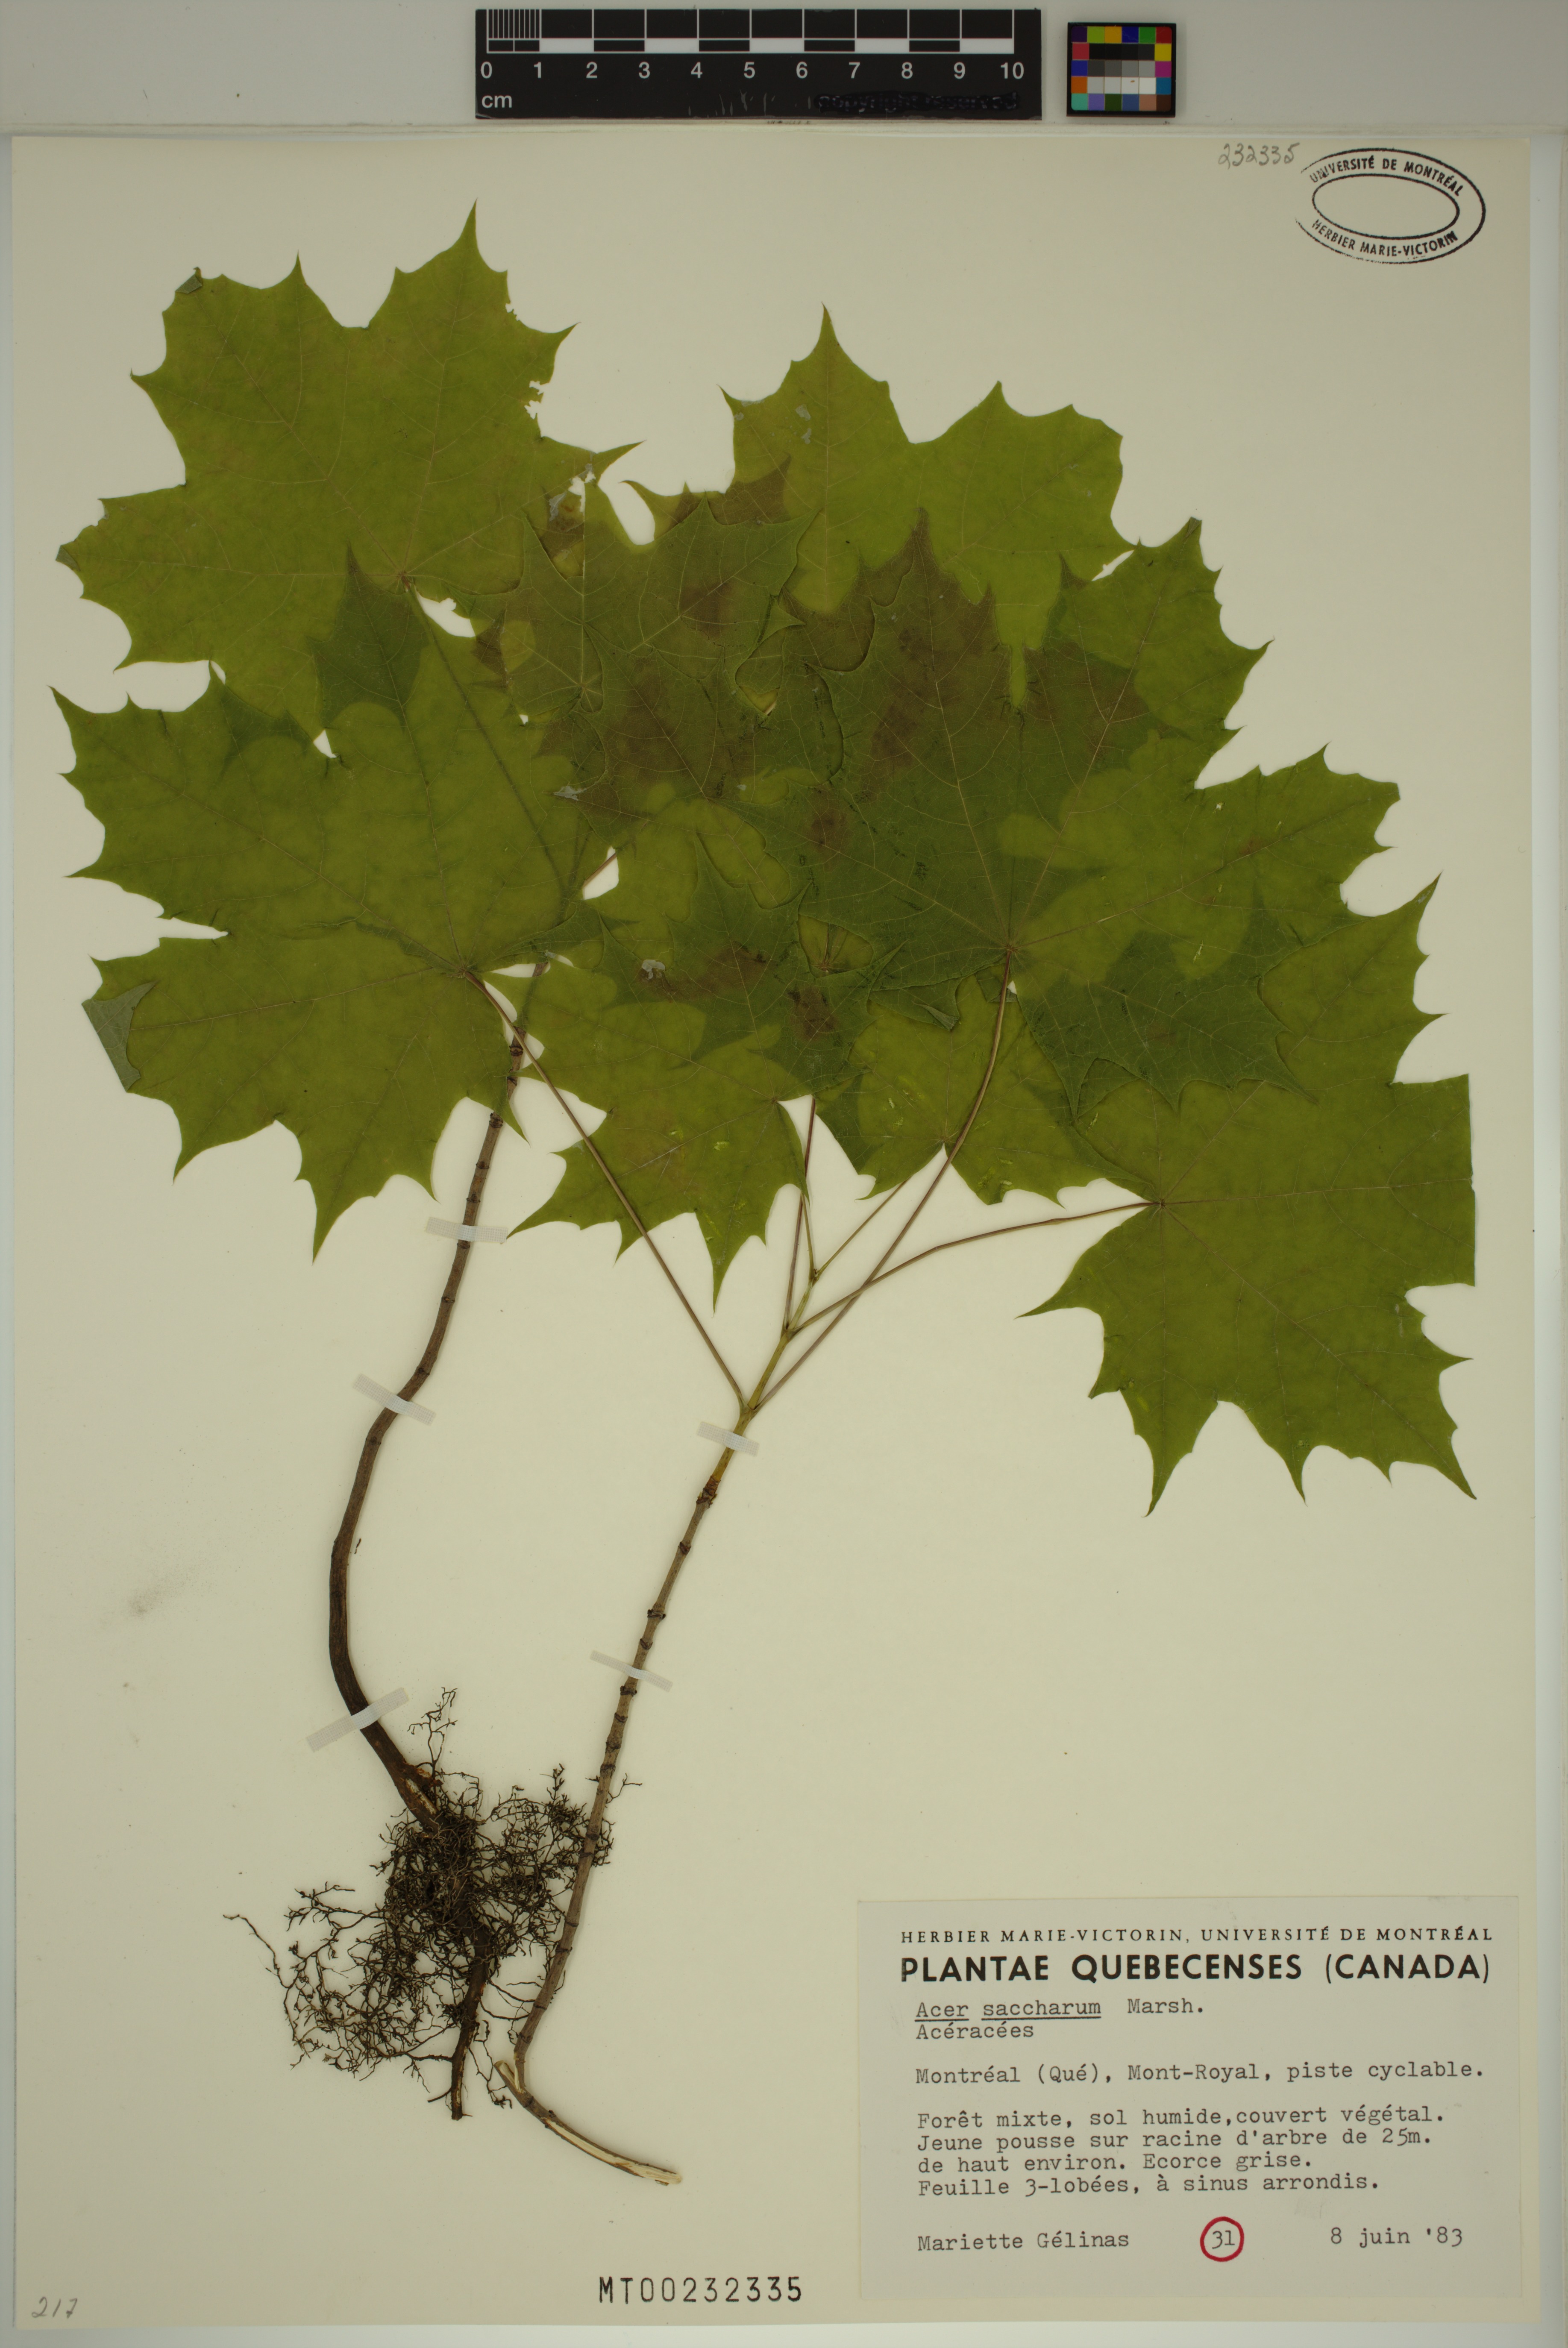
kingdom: Plantae
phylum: Tracheophyta
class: Magnoliopsida
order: Sapindales
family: Sapindaceae
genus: Acer
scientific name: Acer saccharum
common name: Sugar maple
